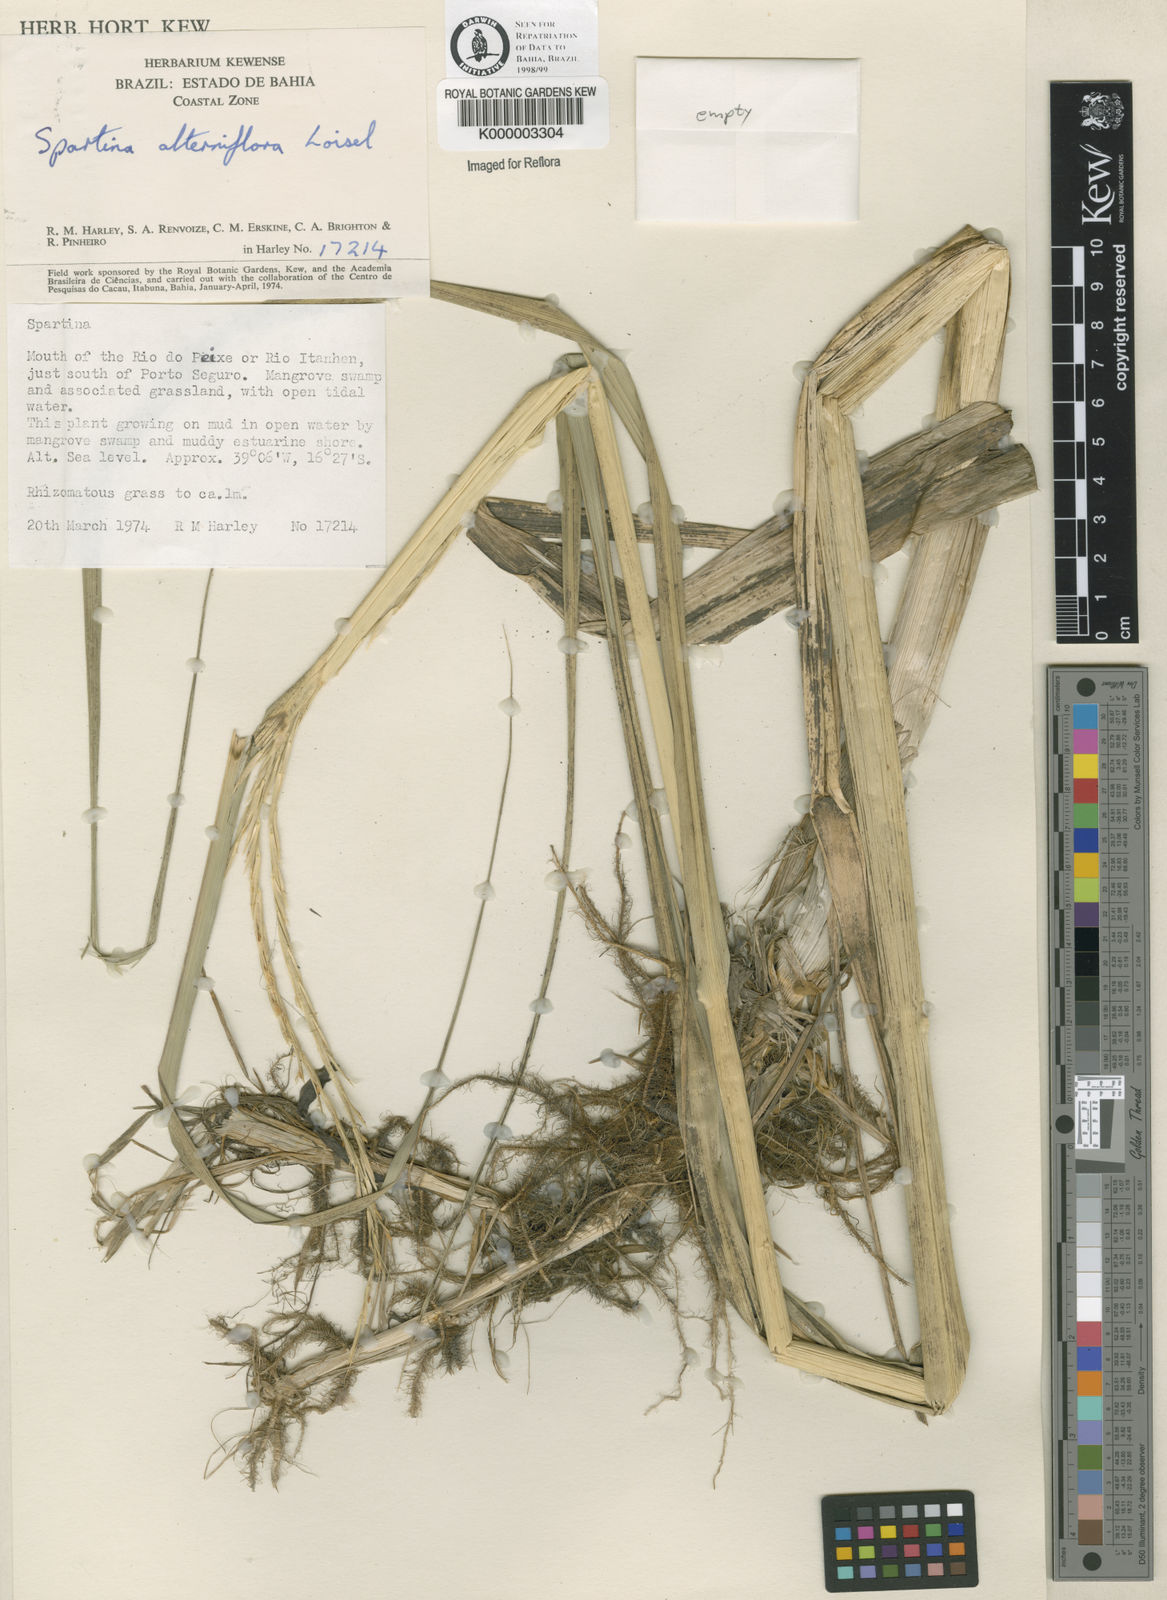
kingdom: Animalia
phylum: Mollusca
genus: Spartina
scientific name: Spartina
